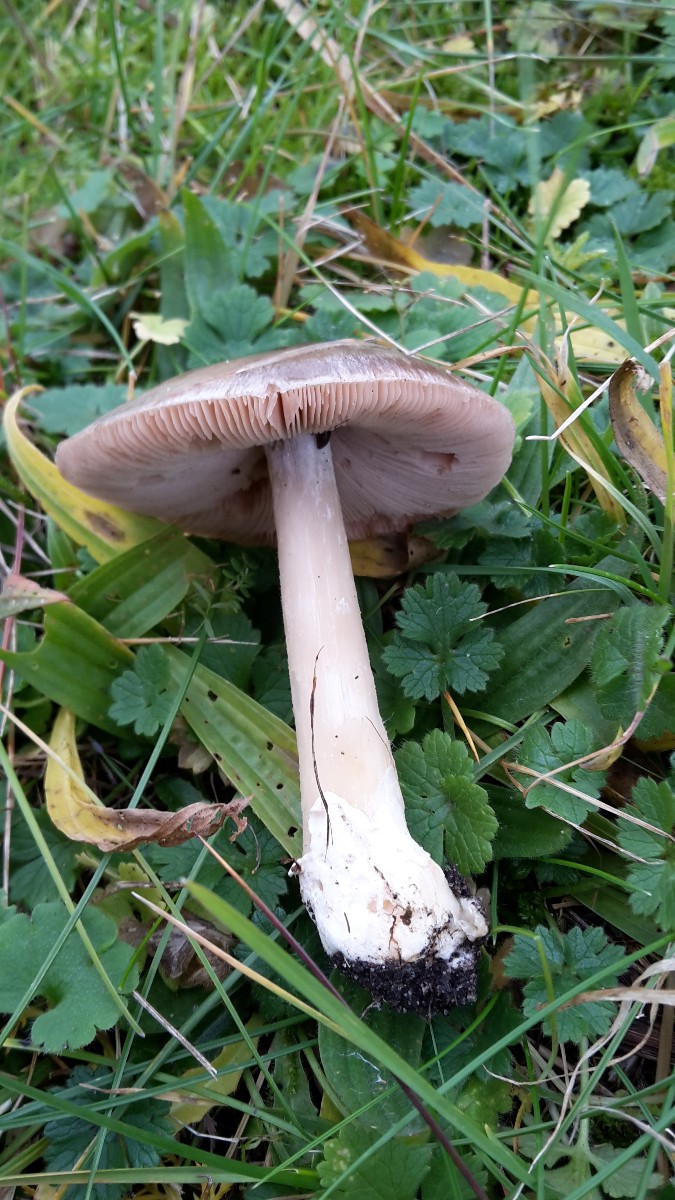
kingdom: Fungi
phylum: Basidiomycota
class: Agaricomycetes
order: Agaricales
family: Pluteaceae
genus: Volvopluteus
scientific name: Volvopluteus gloiocephalus
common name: høj posesvamp
